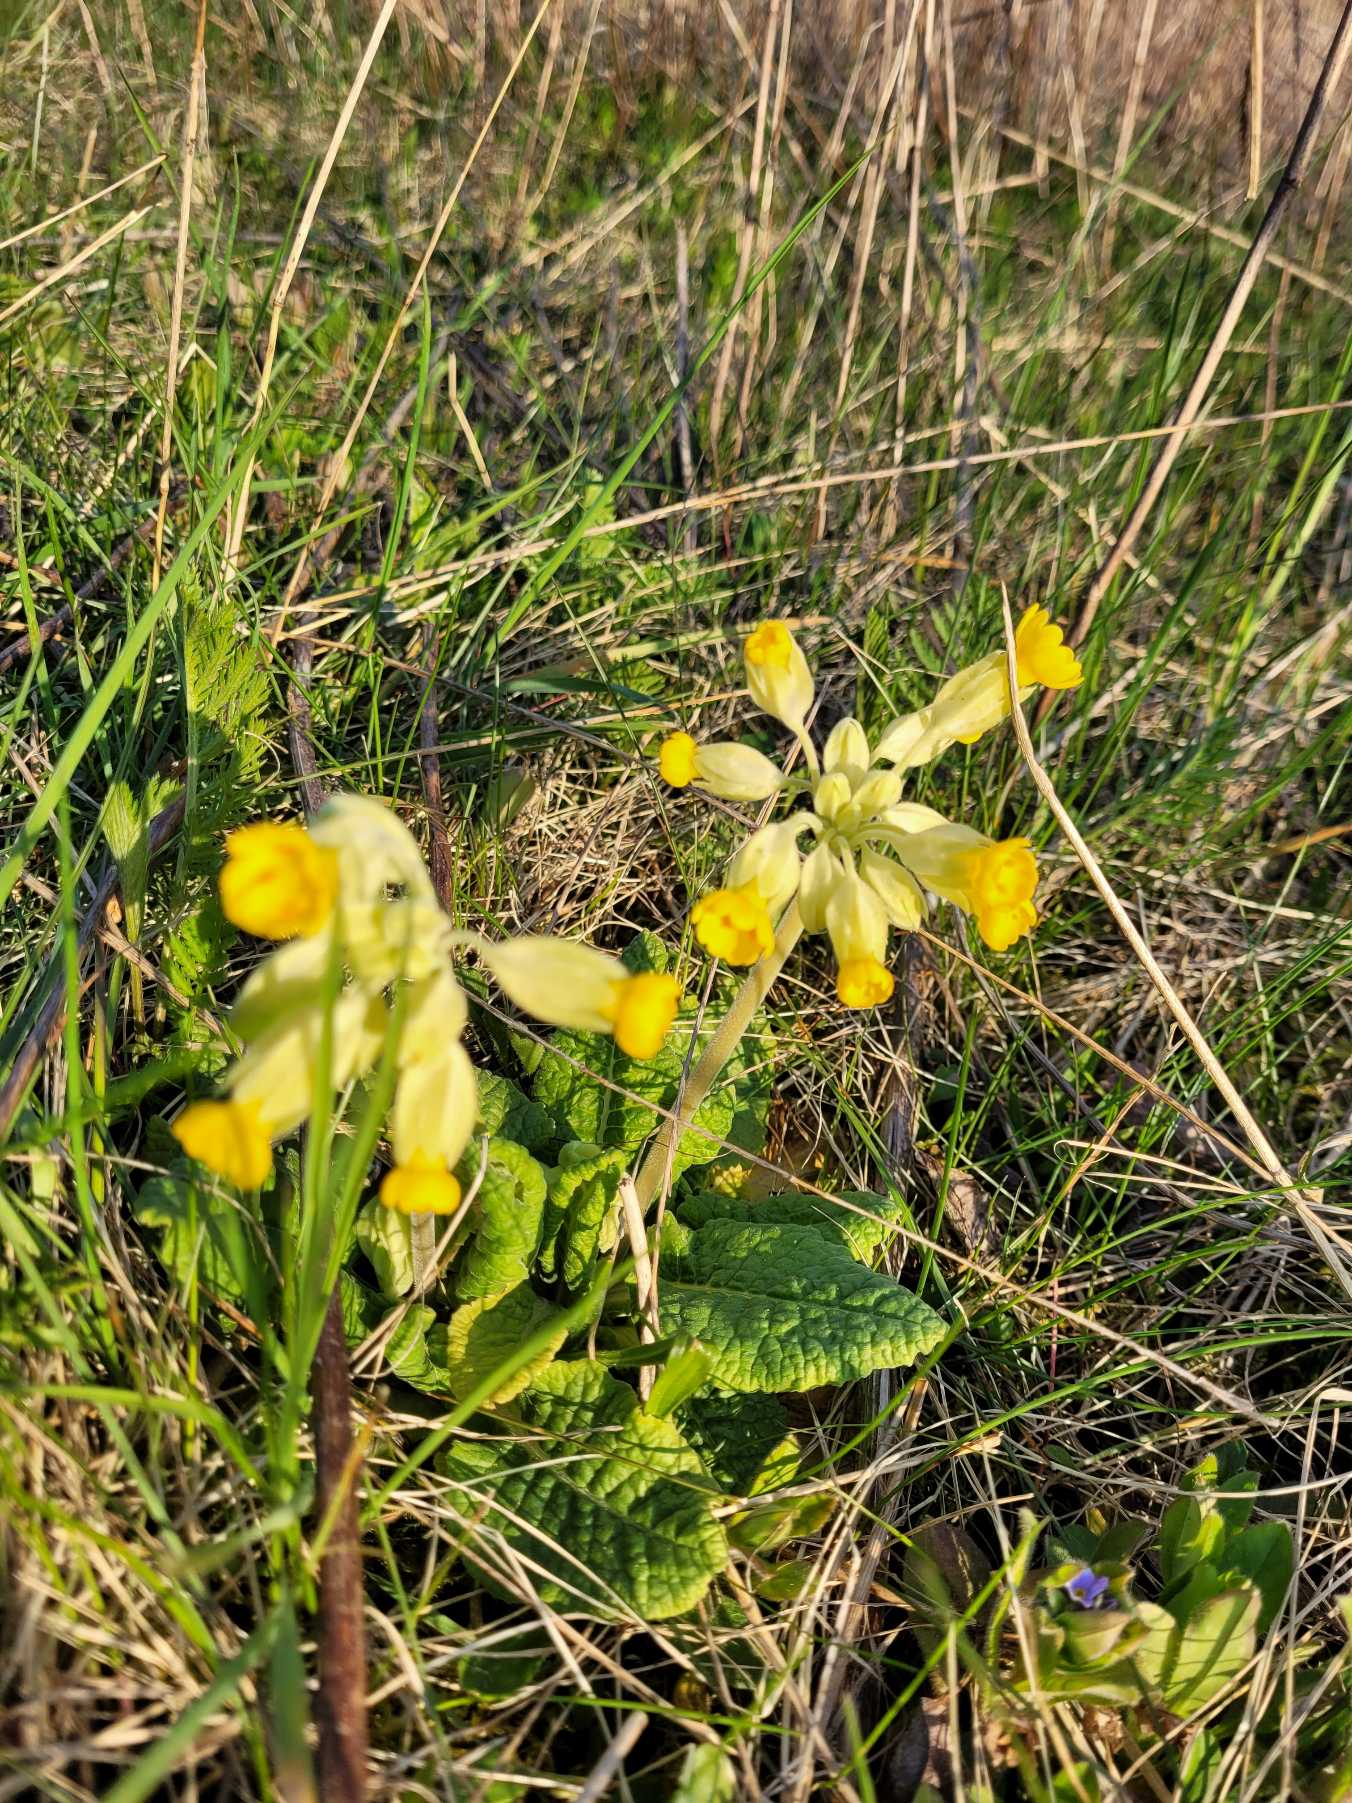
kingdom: Plantae
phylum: Tracheophyta
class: Magnoliopsida
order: Ericales
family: Primulaceae
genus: Primula
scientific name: Primula veris
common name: Hulkravet kodriver
